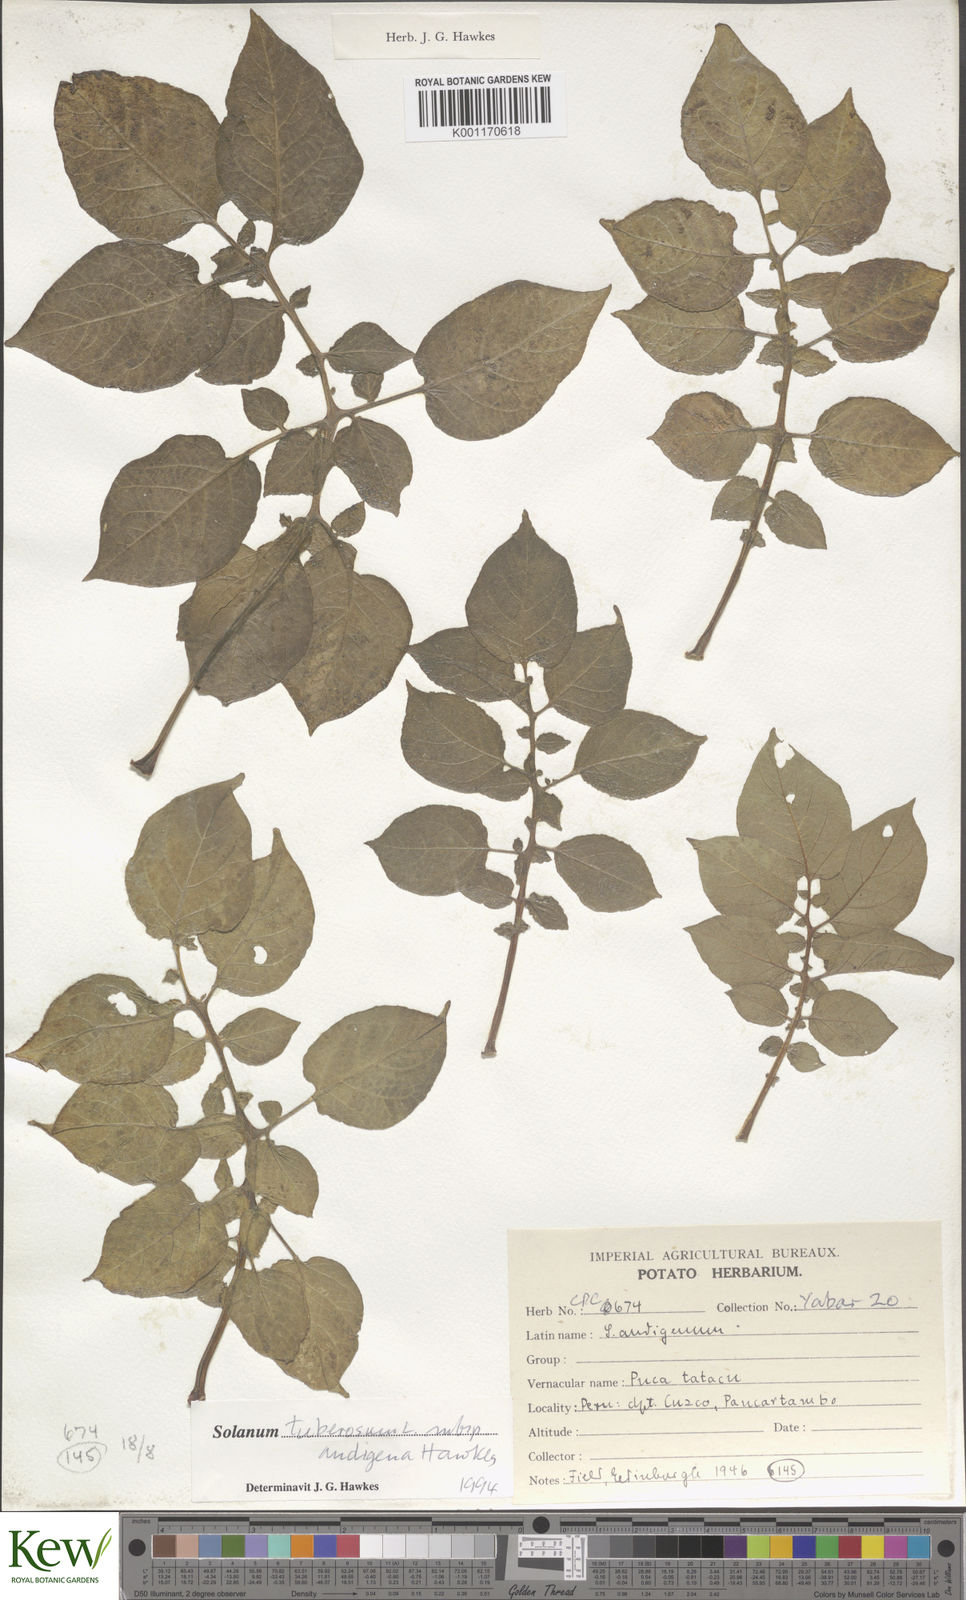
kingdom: Plantae
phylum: Tracheophyta
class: Magnoliopsida
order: Solanales
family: Solanaceae
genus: Solanum
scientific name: Solanum tuberosum
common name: Potato
